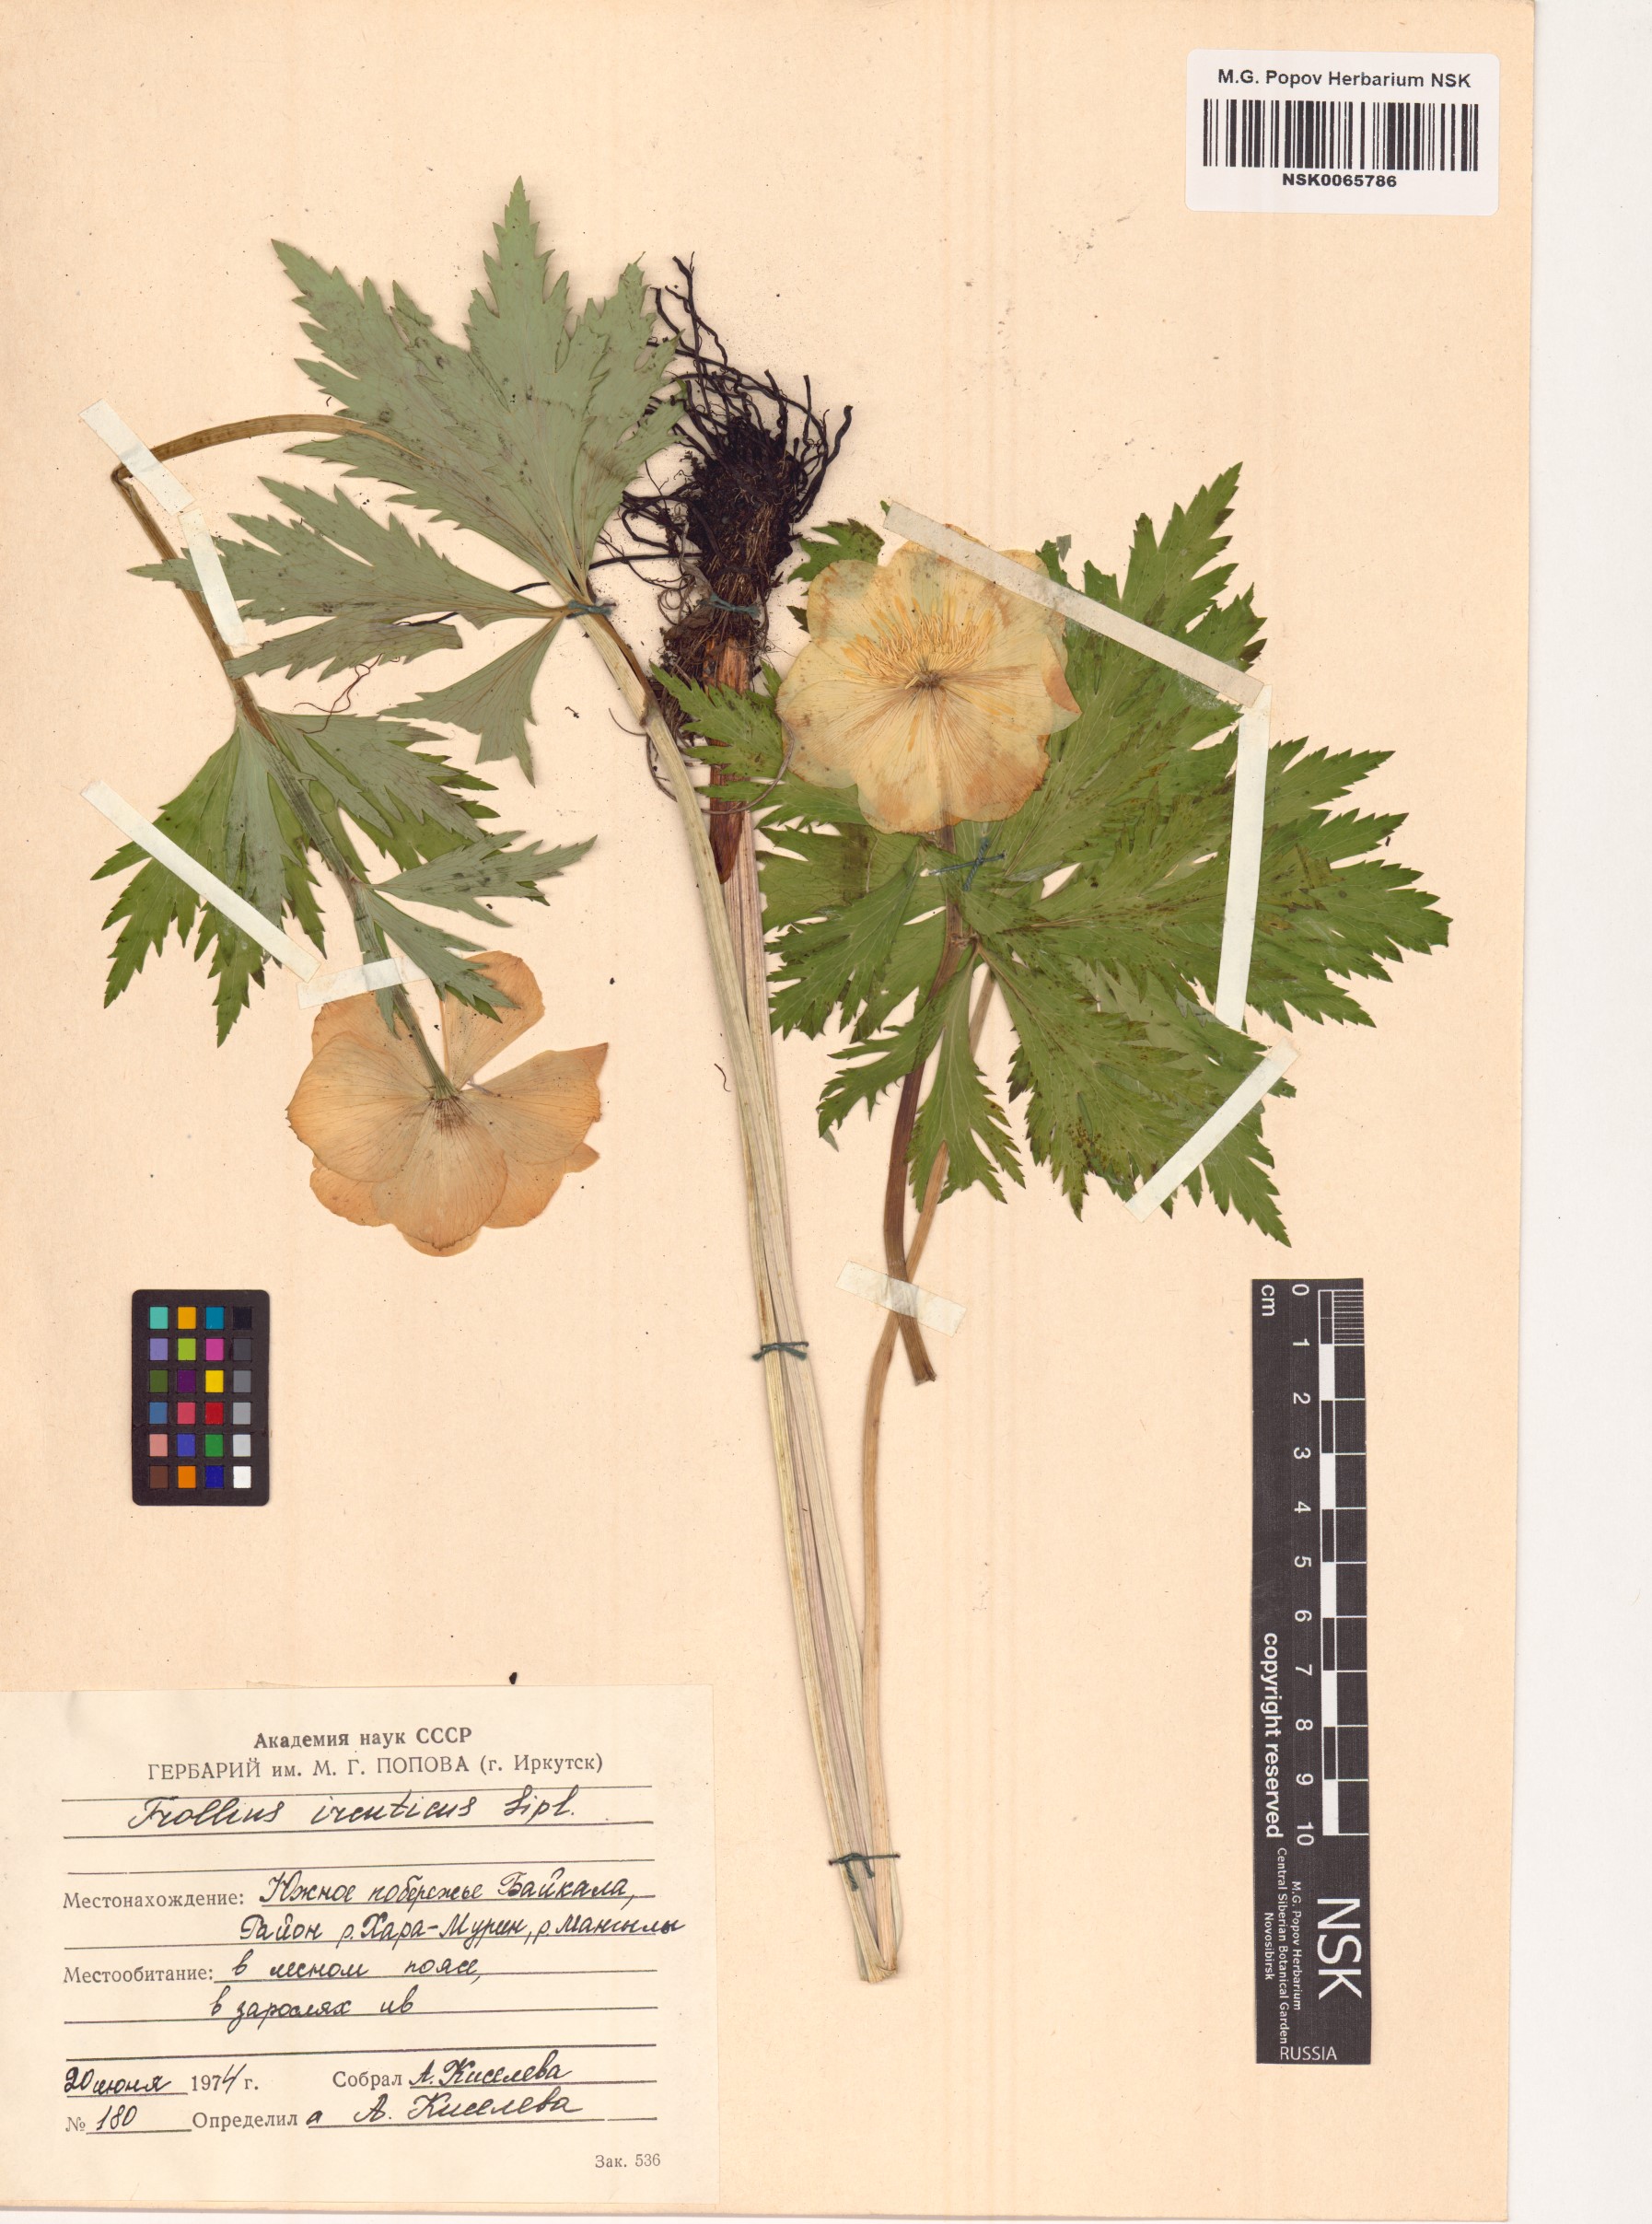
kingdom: Plantae
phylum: Tracheophyta
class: Magnoliopsida
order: Ranunculales
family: Ranunculaceae
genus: Trollius
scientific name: Trollius kytmanovii
